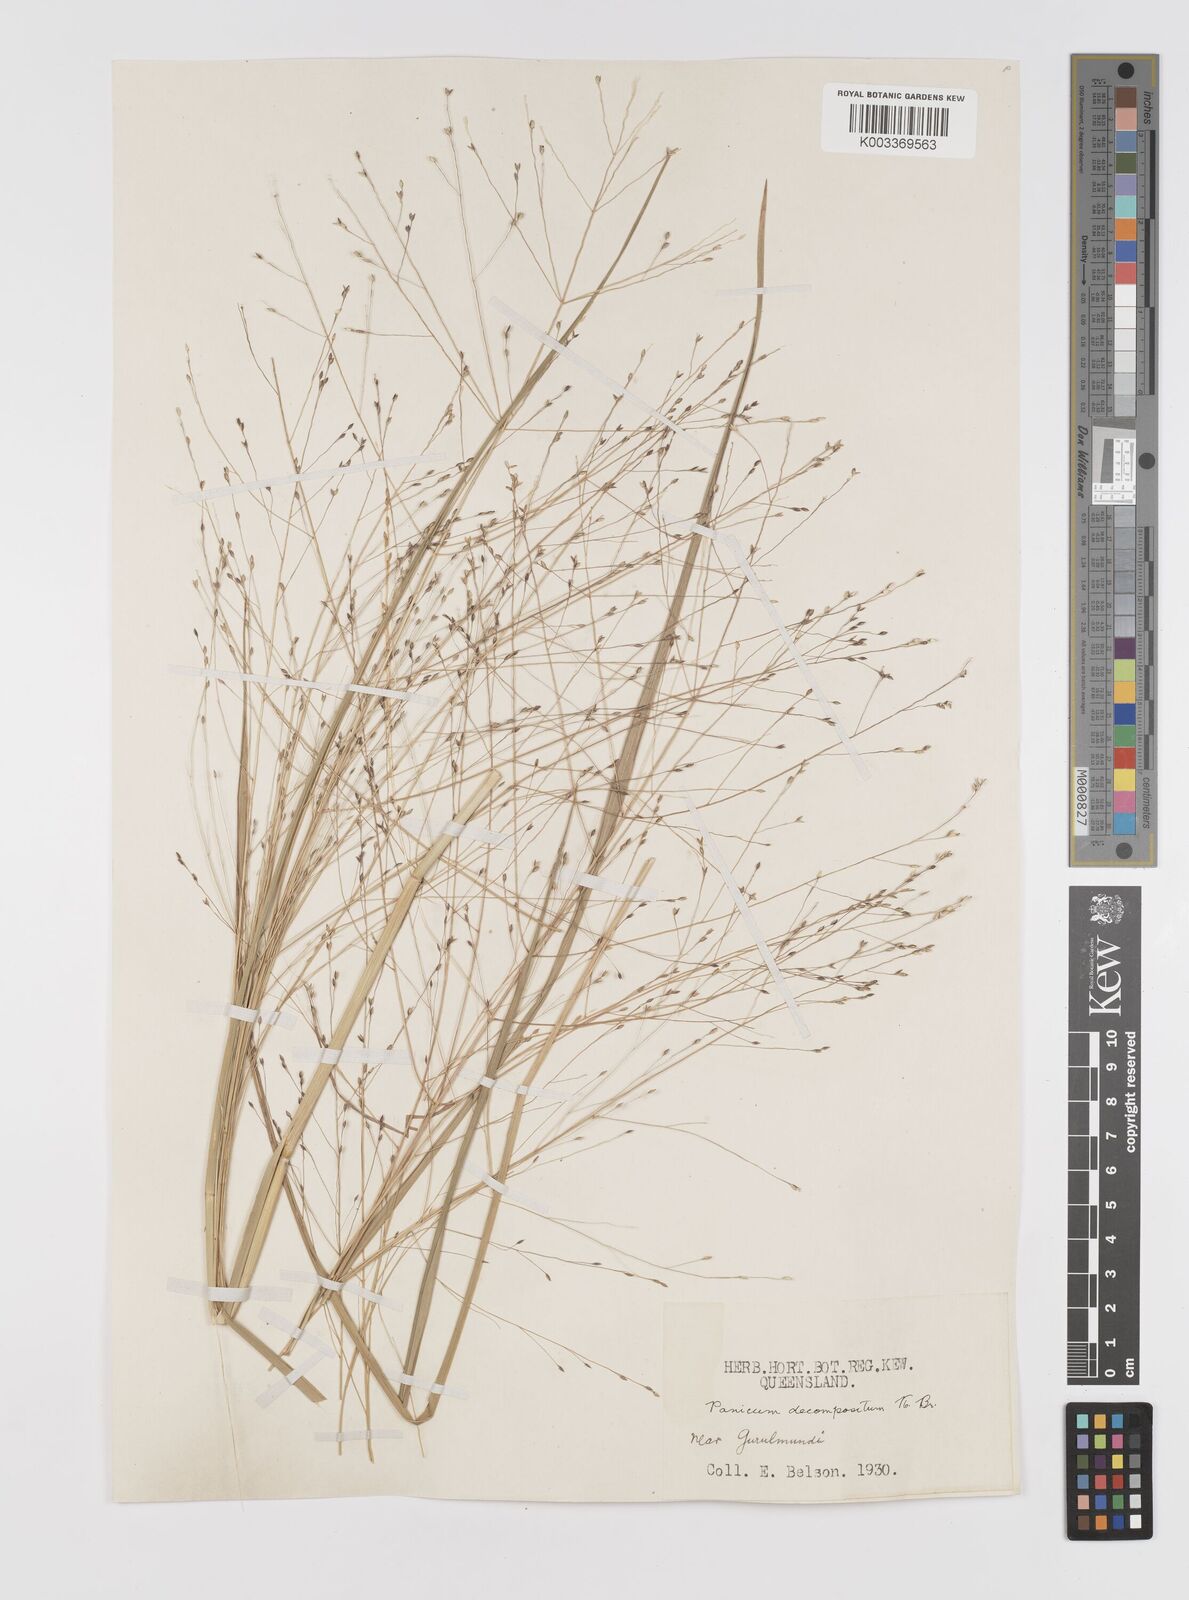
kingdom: Plantae
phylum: Tracheophyta
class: Liliopsida
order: Poales
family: Poaceae
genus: Panicum
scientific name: Panicum decompositum
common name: Australian millet
